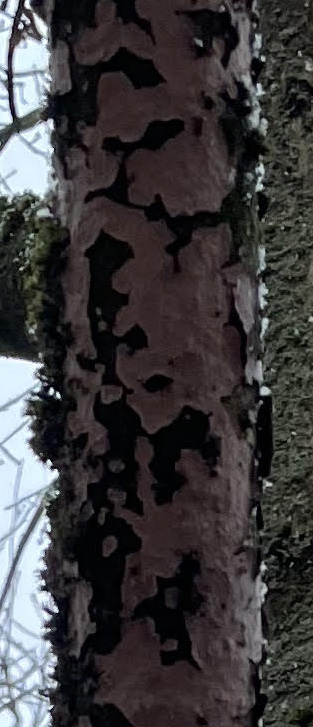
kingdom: Fungi
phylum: Basidiomycota
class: Agaricomycetes
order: Russulales
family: Peniophoraceae
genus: Peniophora
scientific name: Peniophora quercina
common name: ege-voksskind
